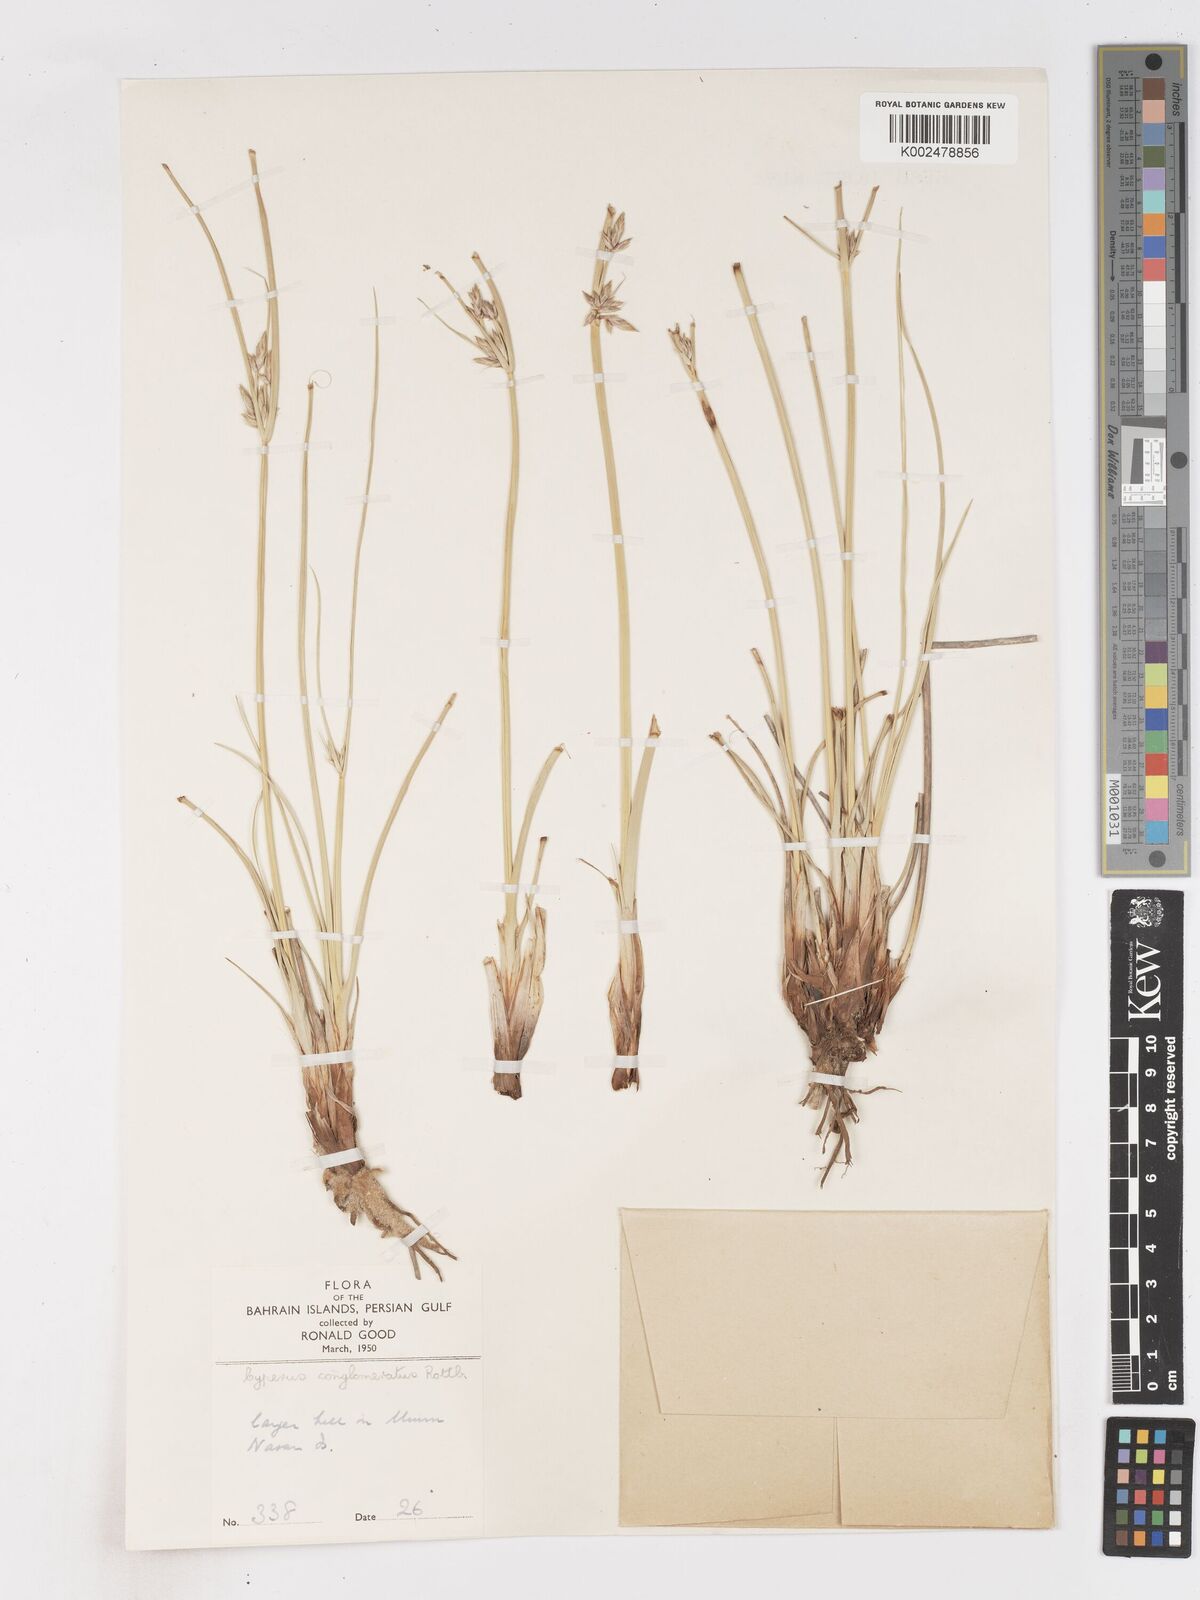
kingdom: Plantae
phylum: Tracheophyta
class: Liliopsida
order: Poales
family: Cyperaceae
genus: Cyperus
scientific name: Cyperus aucheri
